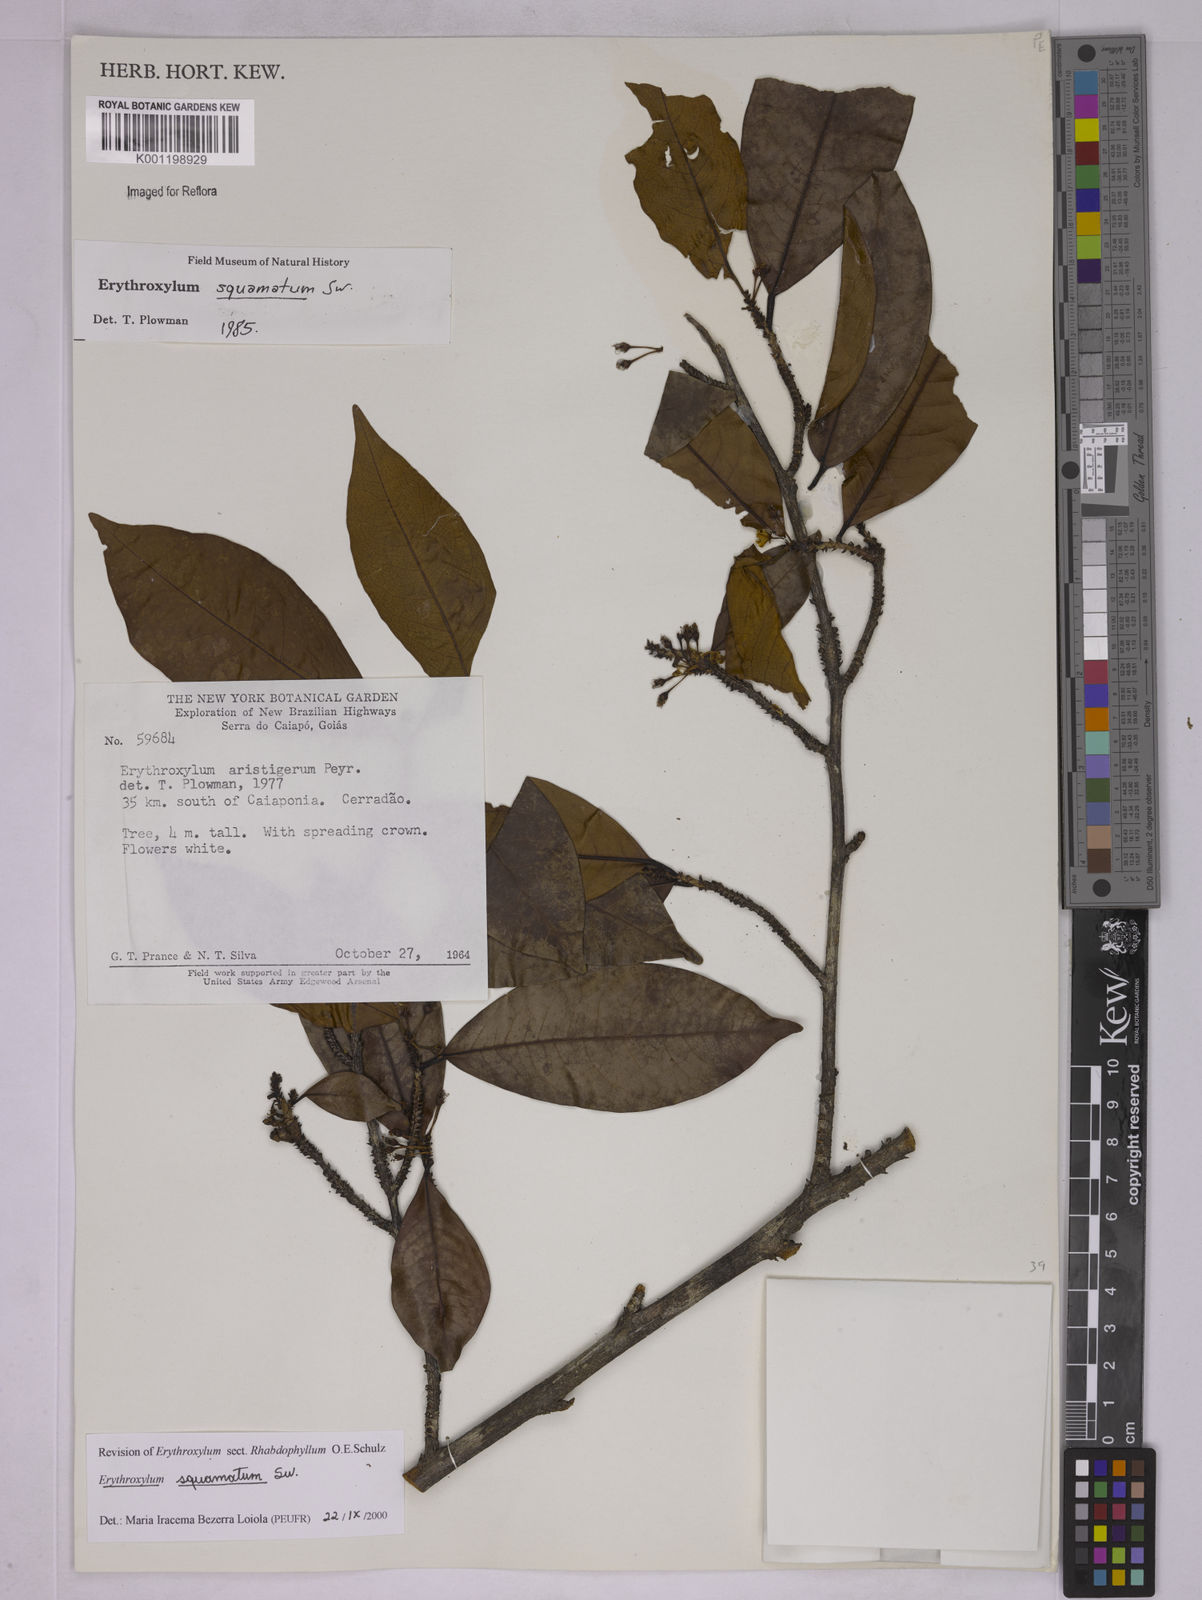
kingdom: Plantae
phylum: Tracheophyta
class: Magnoliopsida
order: Malpighiales
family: Erythroxylaceae
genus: Erythroxylum
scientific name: Erythroxylum squamatum
